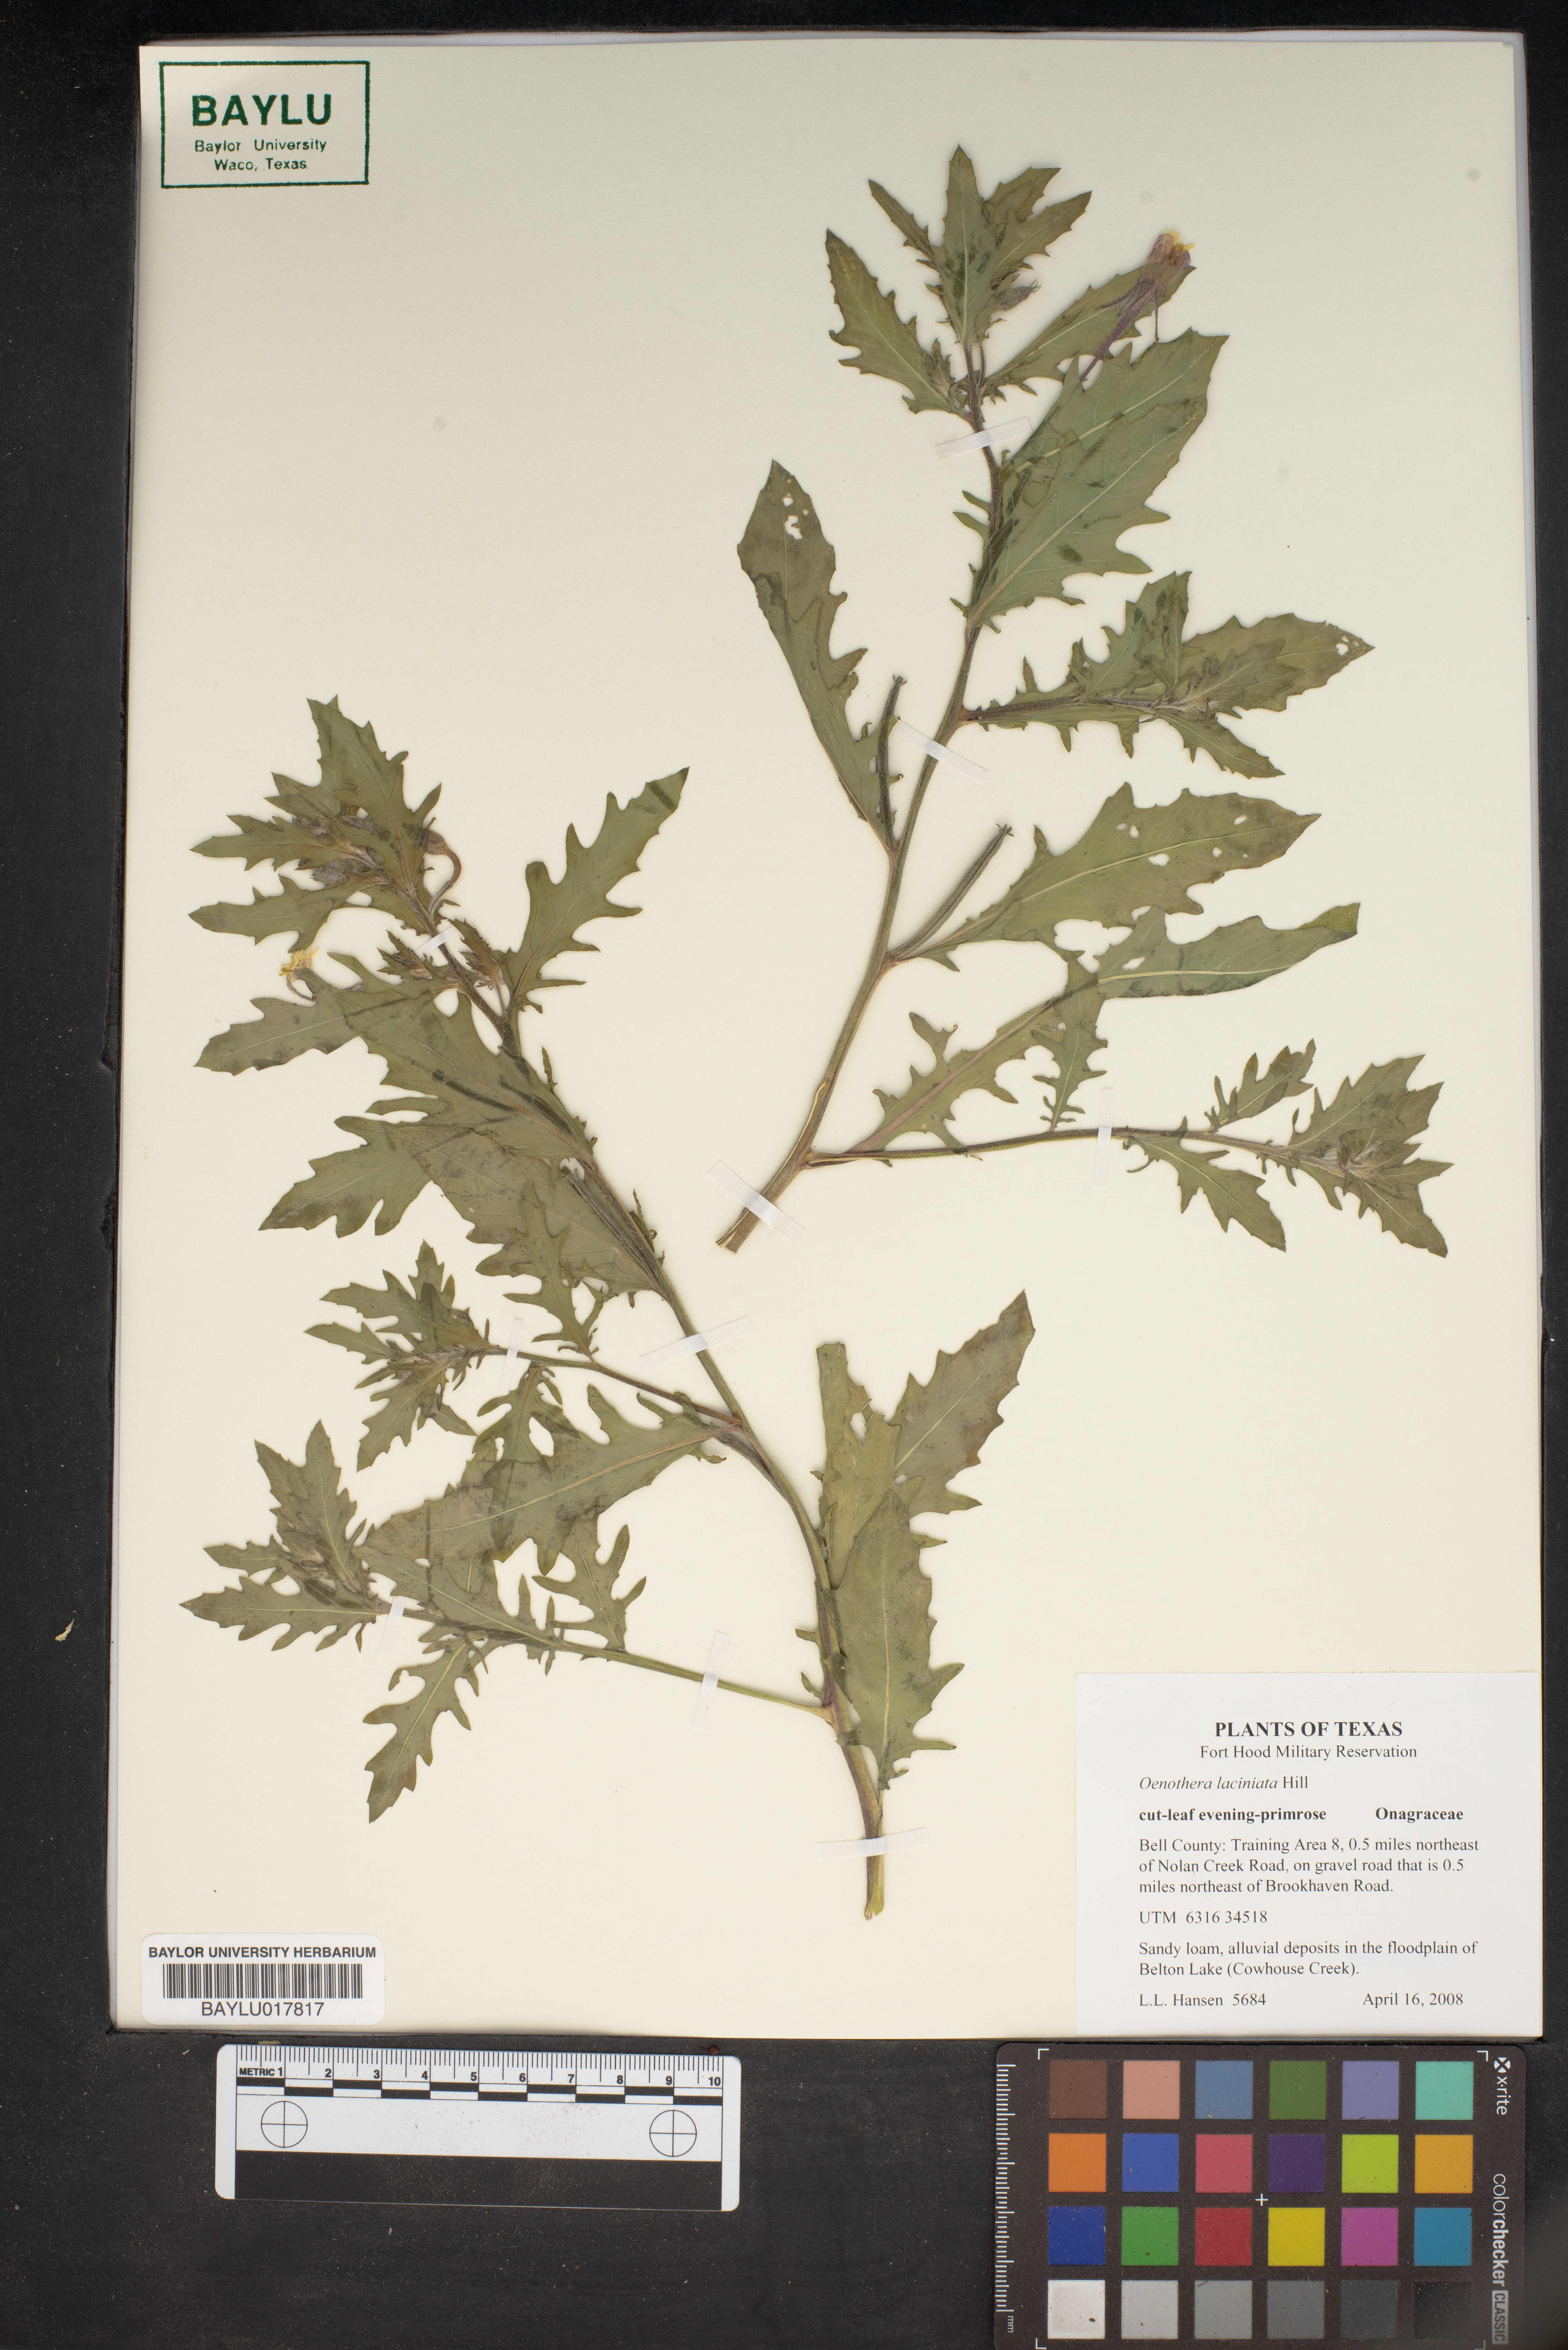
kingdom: Plantae
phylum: Tracheophyta
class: Magnoliopsida
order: Myrtales
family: Onagraceae
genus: Oenothera
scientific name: Oenothera laciniata
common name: Cut-leaved evening-primrose
